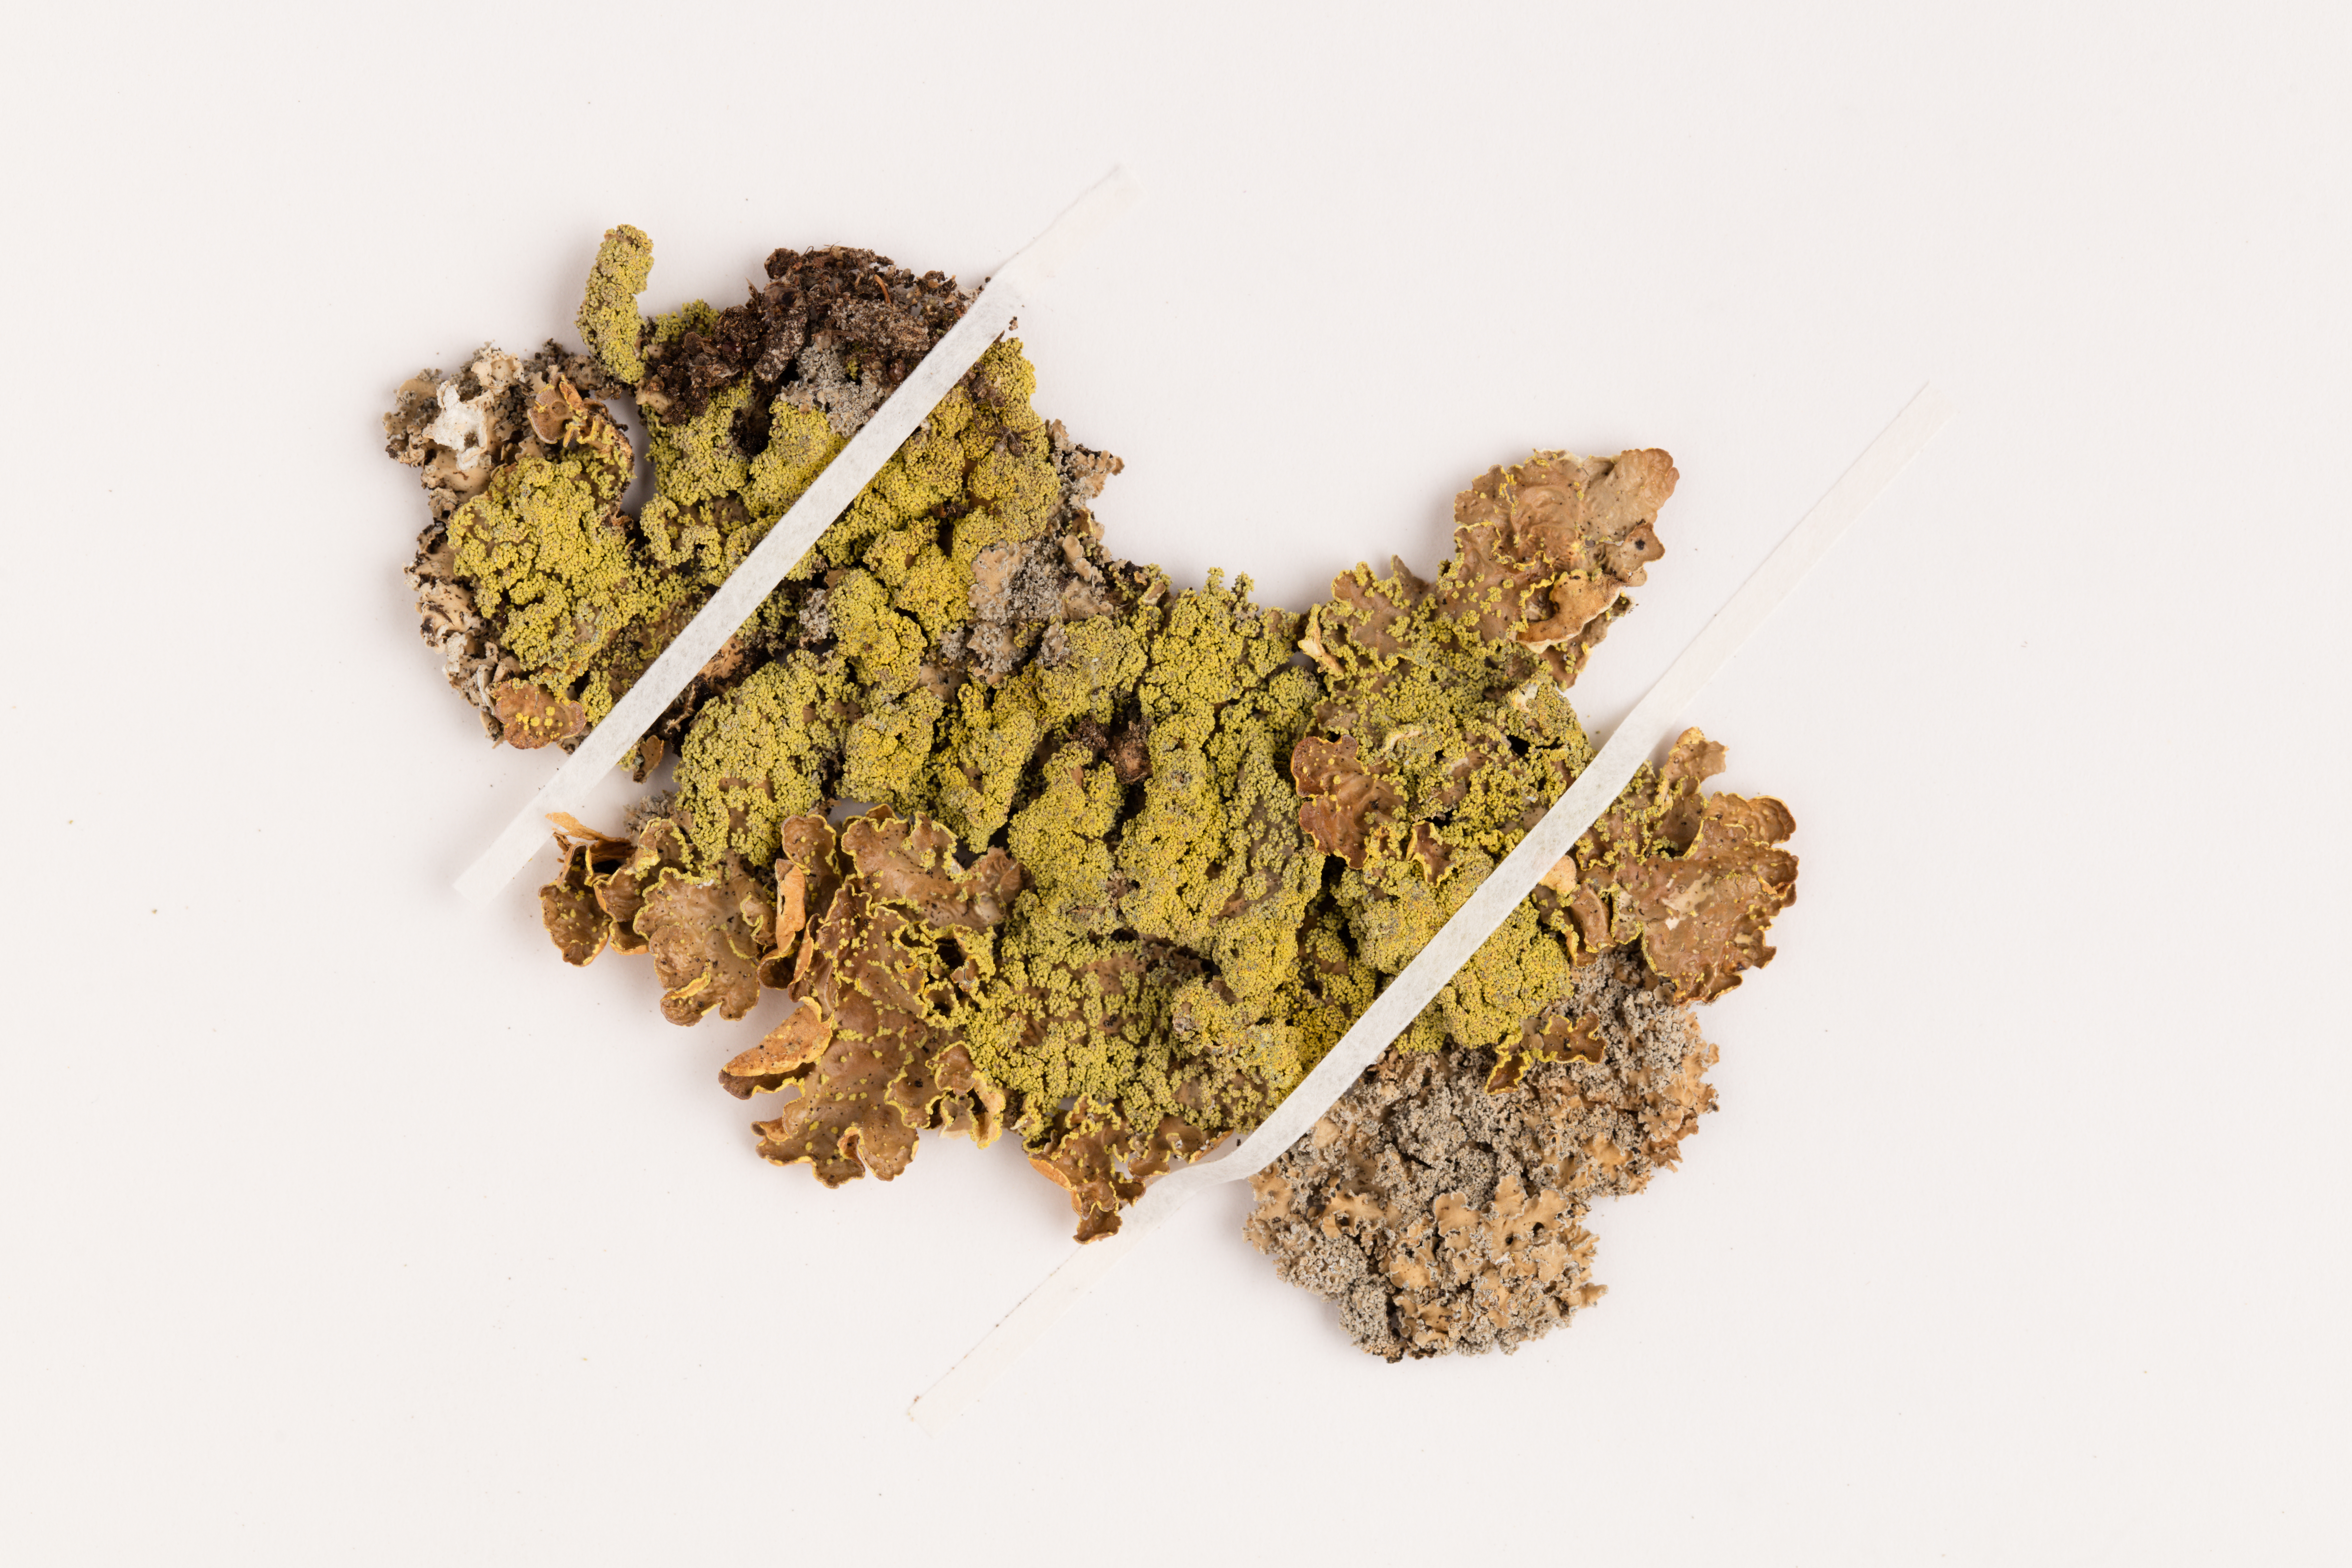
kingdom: Fungi
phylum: Ascomycota
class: Lecanoromycetes
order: Peltigerales
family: Lobariaceae
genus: Pseudocyphellaria
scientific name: Pseudocyphellaria crocata
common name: Golden specklebelly
